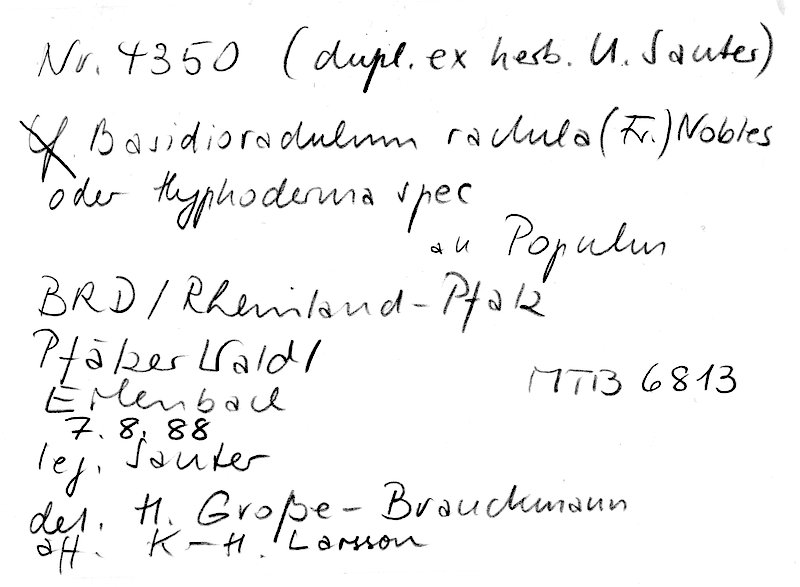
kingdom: Plantae
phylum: Tracheophyta
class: Magnoliopsida
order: Malpighiales
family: Salicaceae
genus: Populus
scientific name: Populus
